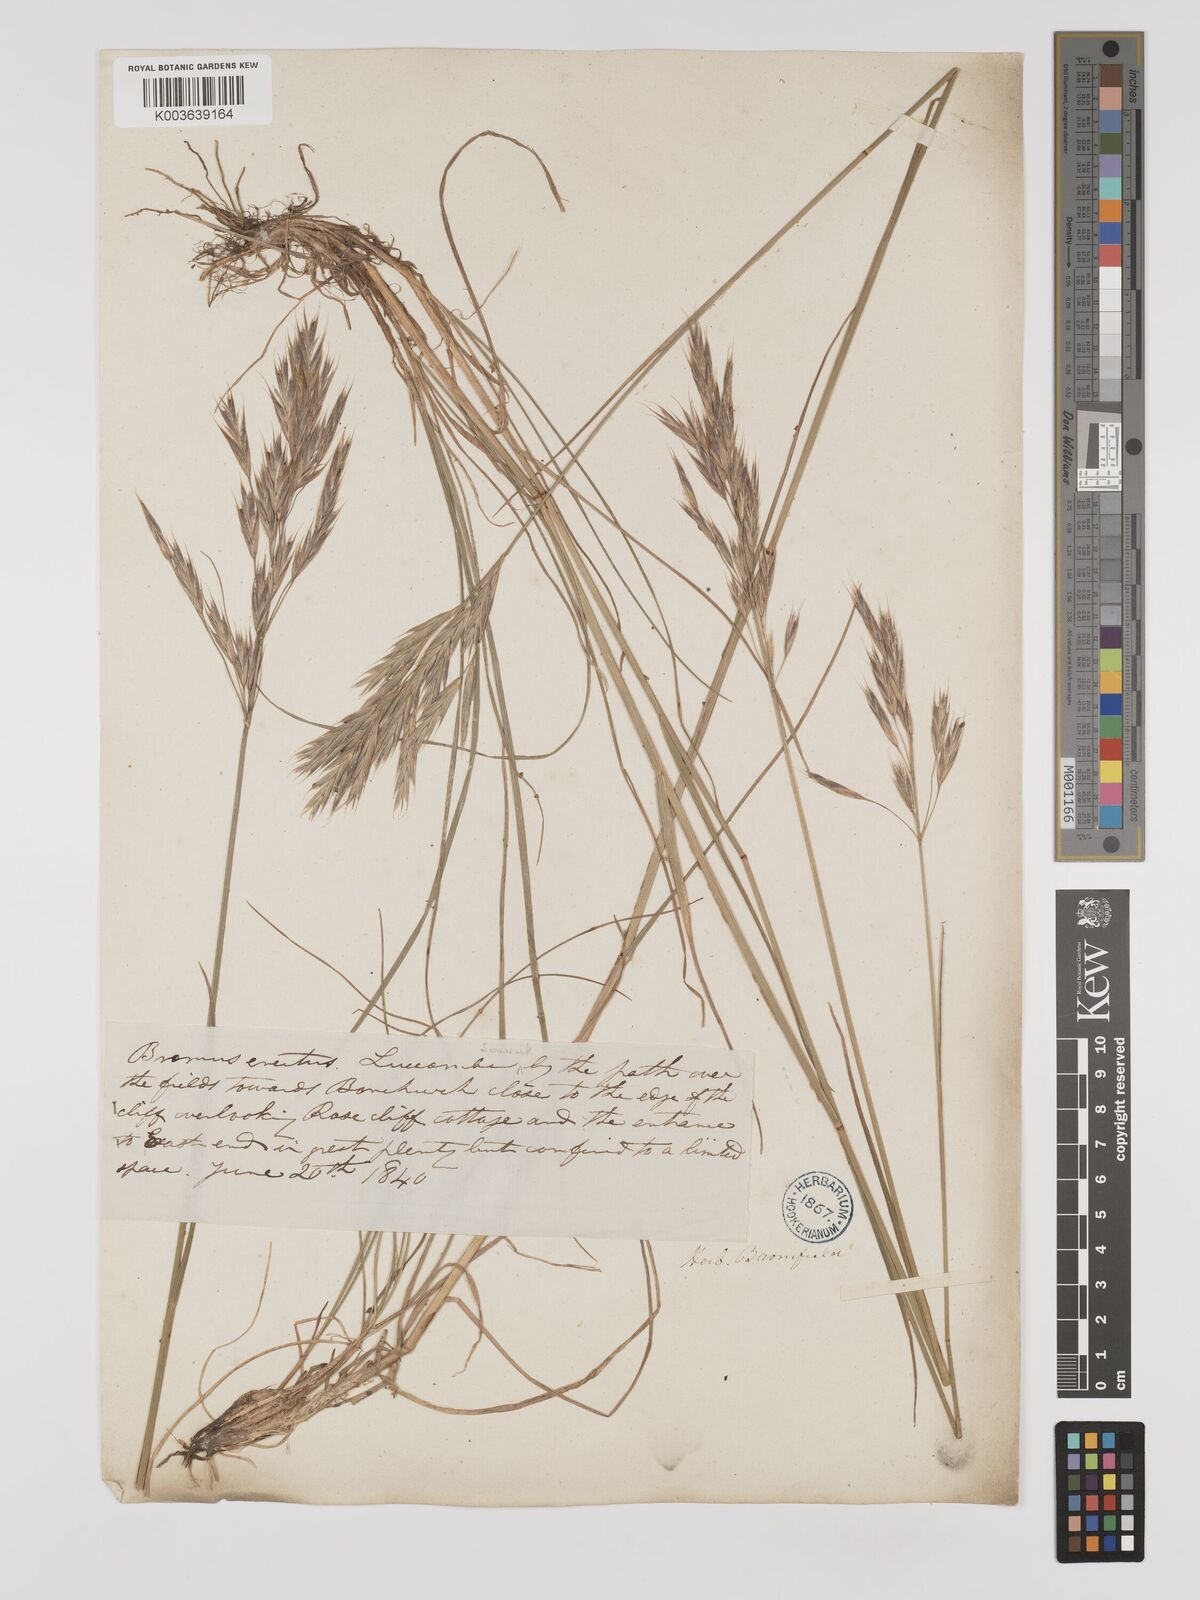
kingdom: Plantae
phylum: Tracheophyta
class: Liliopsida
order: Poales
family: Poaceae
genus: Bromus
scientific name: Bromus erectus
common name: Erect brome
